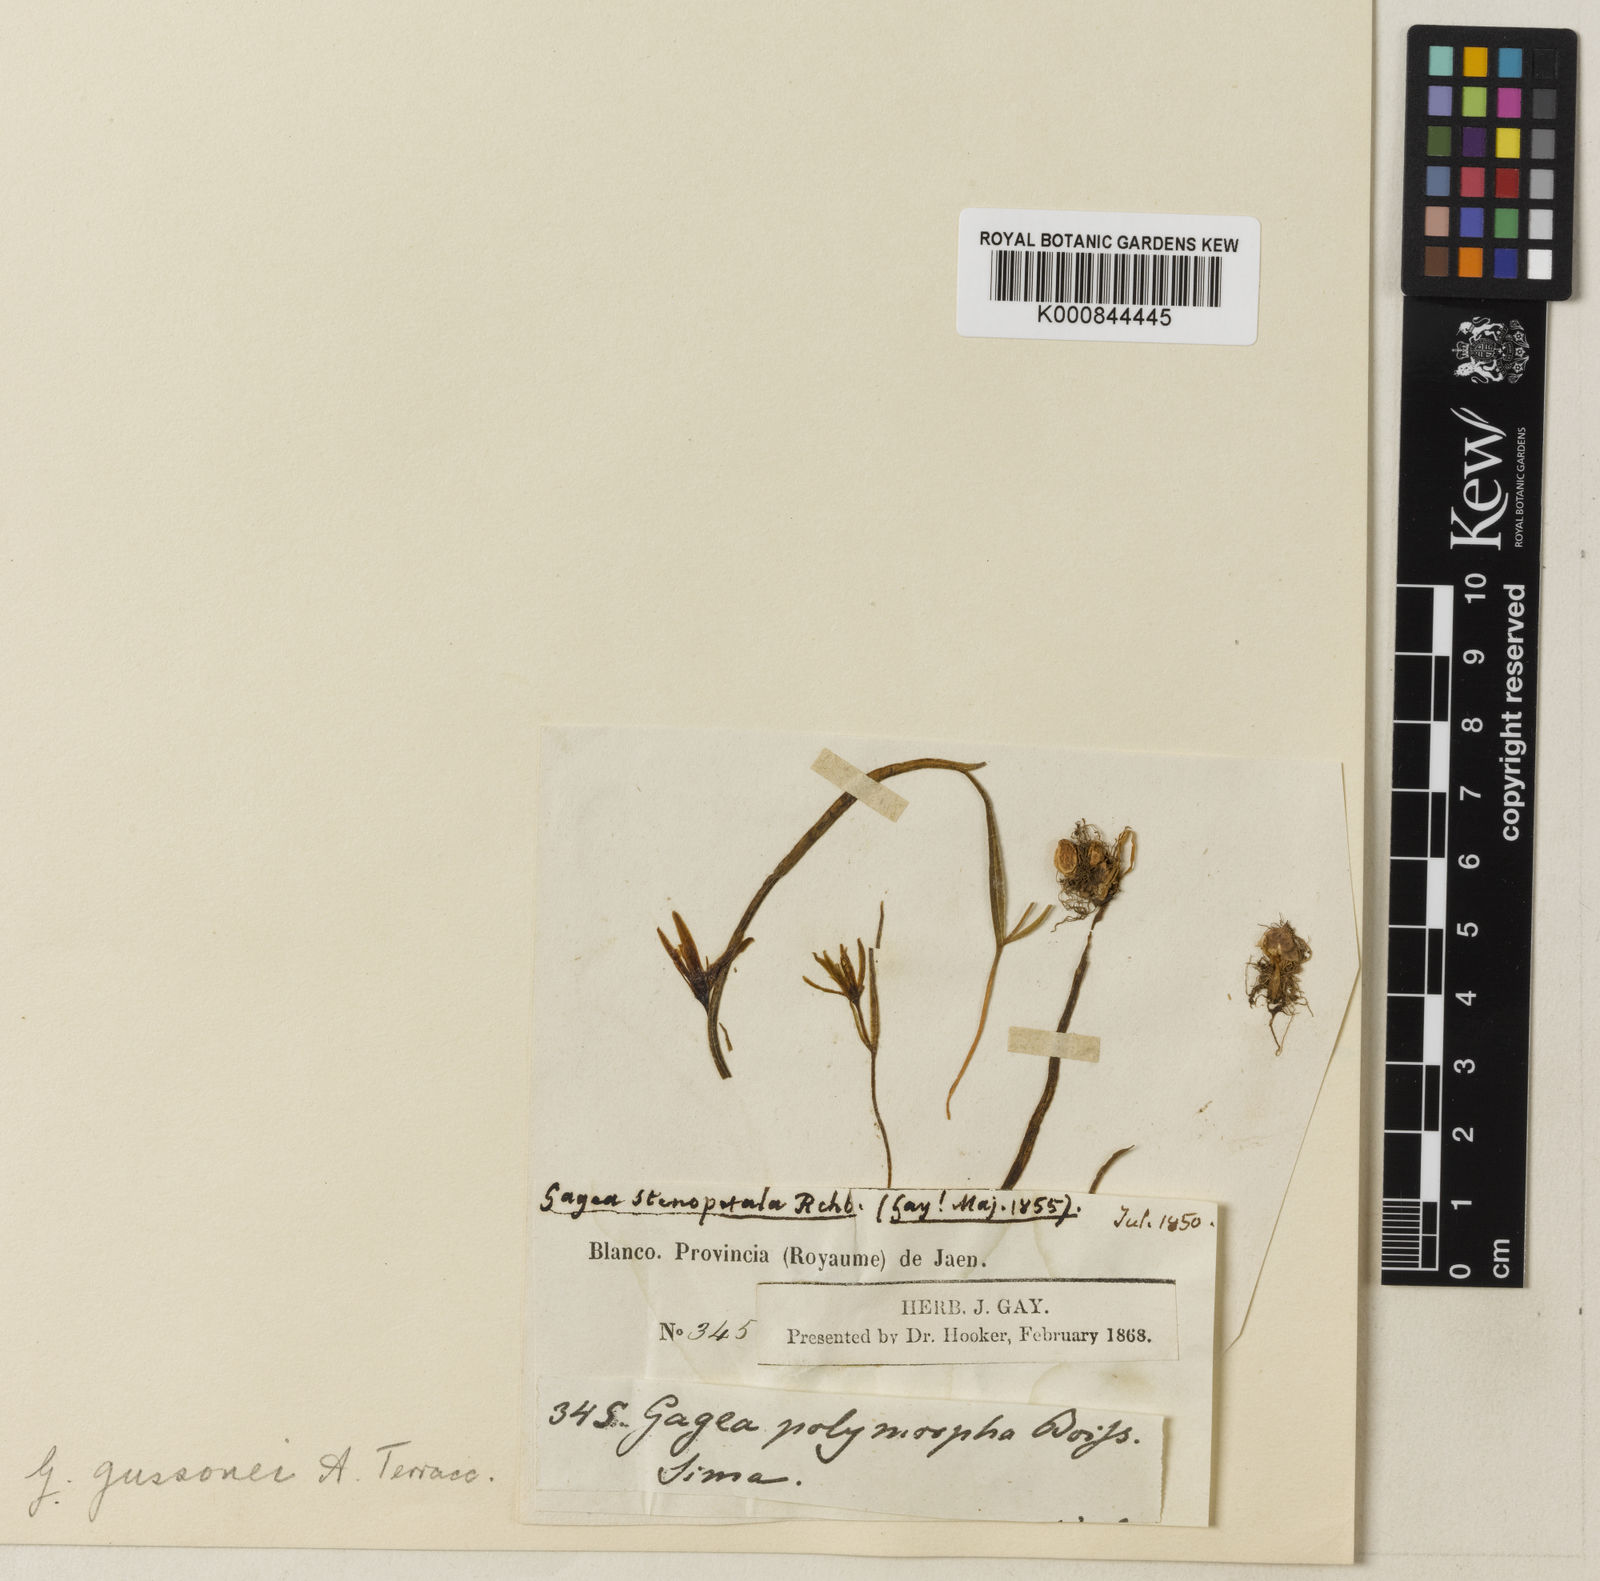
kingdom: Plantae
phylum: Tracheophyta
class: Liliopsida
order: Liliales
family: Liliaceae
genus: Gagea
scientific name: Gagea
